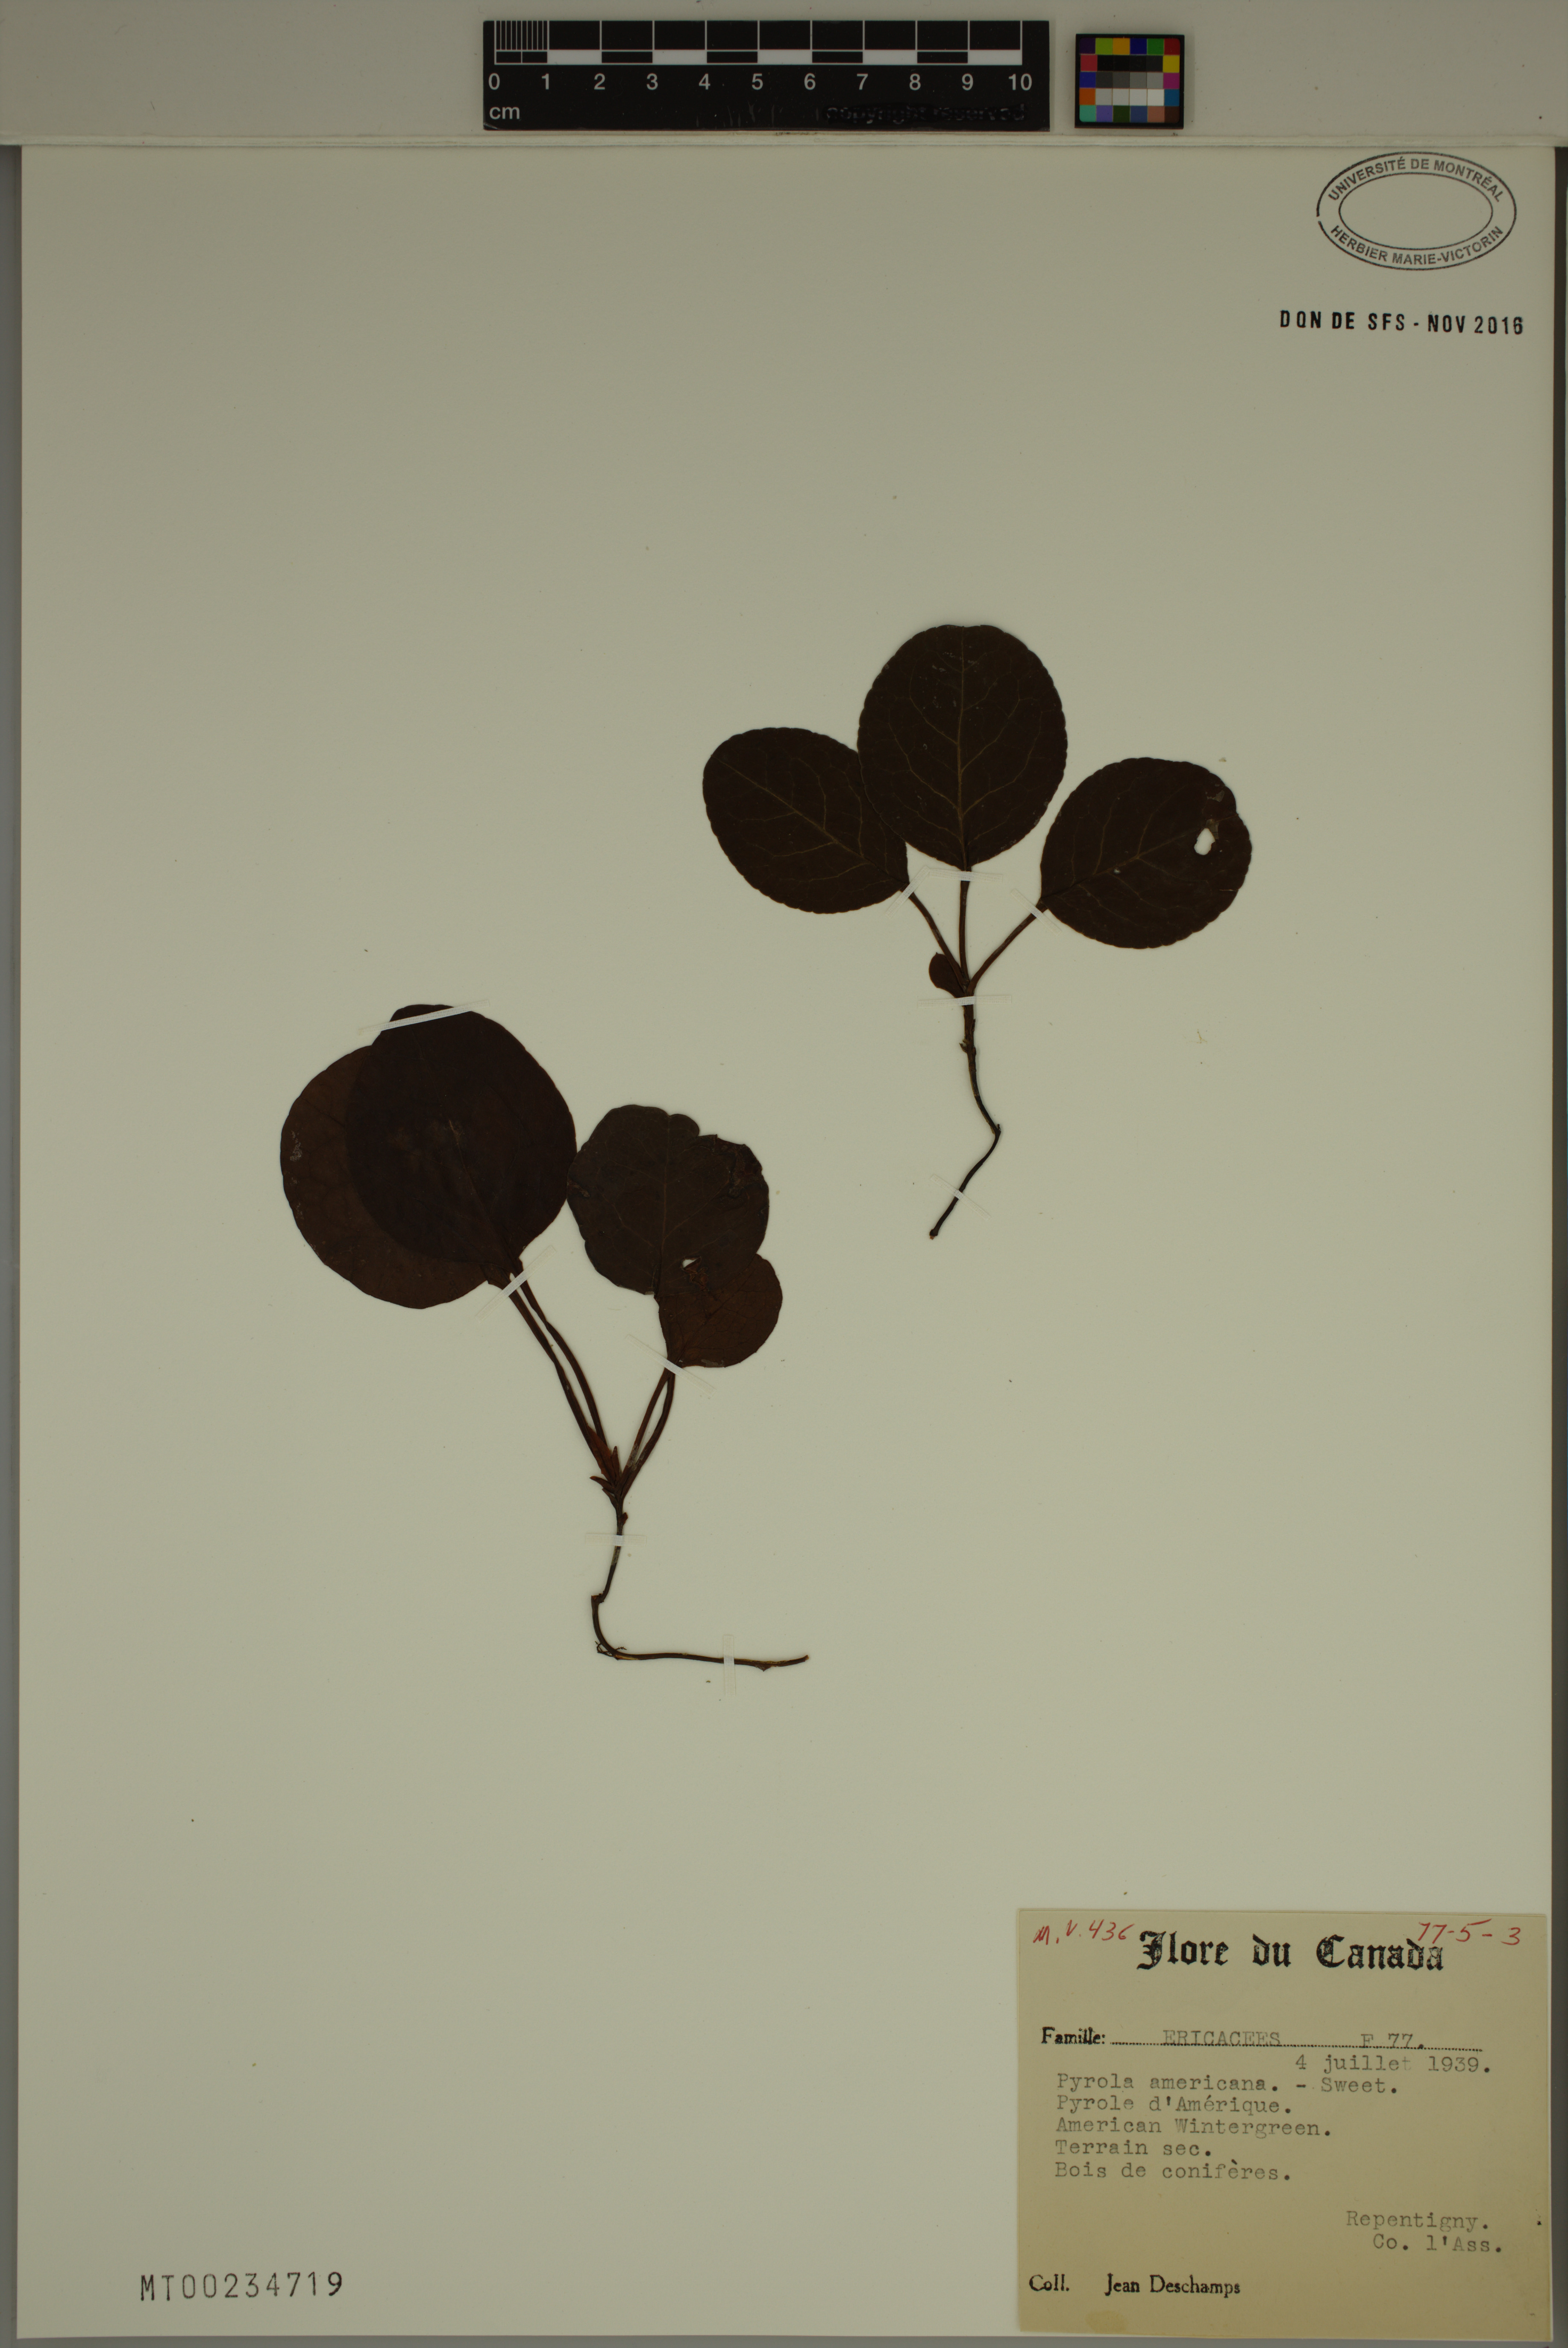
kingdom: Plantae
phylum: Tracheophyta
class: Magnoliopsida
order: Ericales
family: Ericaceae
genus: Pyrola
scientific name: Pyrola americana
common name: American wintergreen
